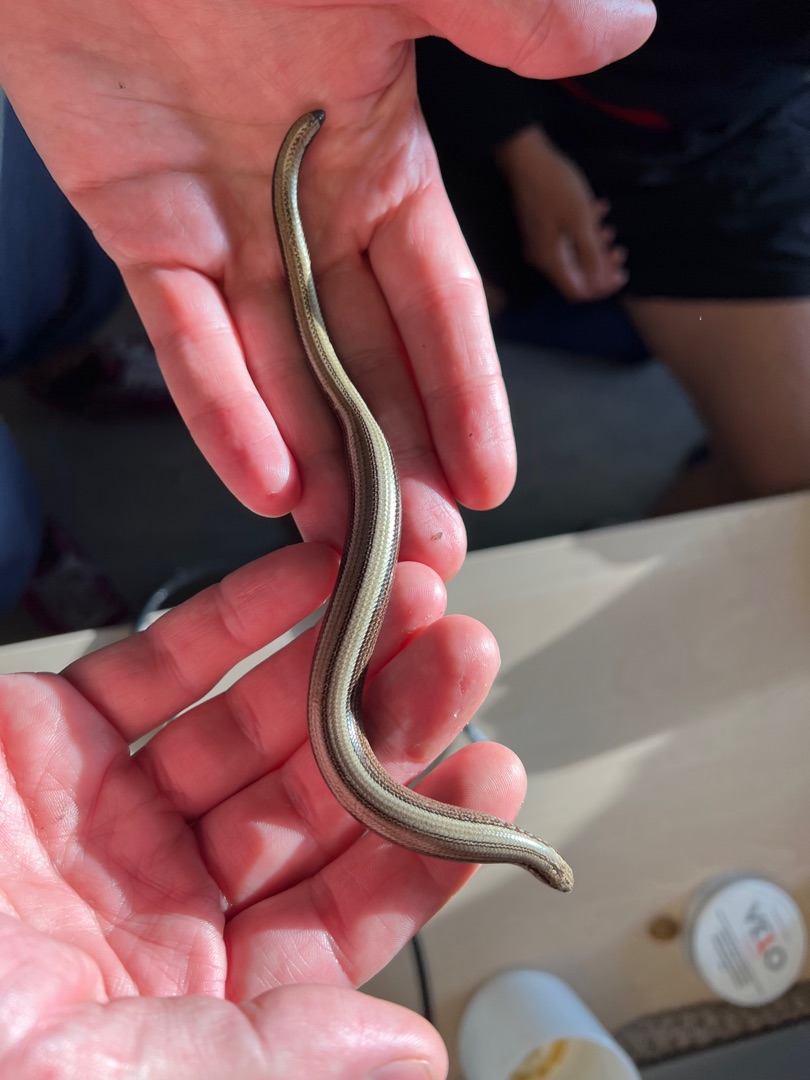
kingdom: Animalia
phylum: Chordata
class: Squamata
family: Anguidae
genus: Anguis
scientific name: Anguis fragilis
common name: Stålorm
